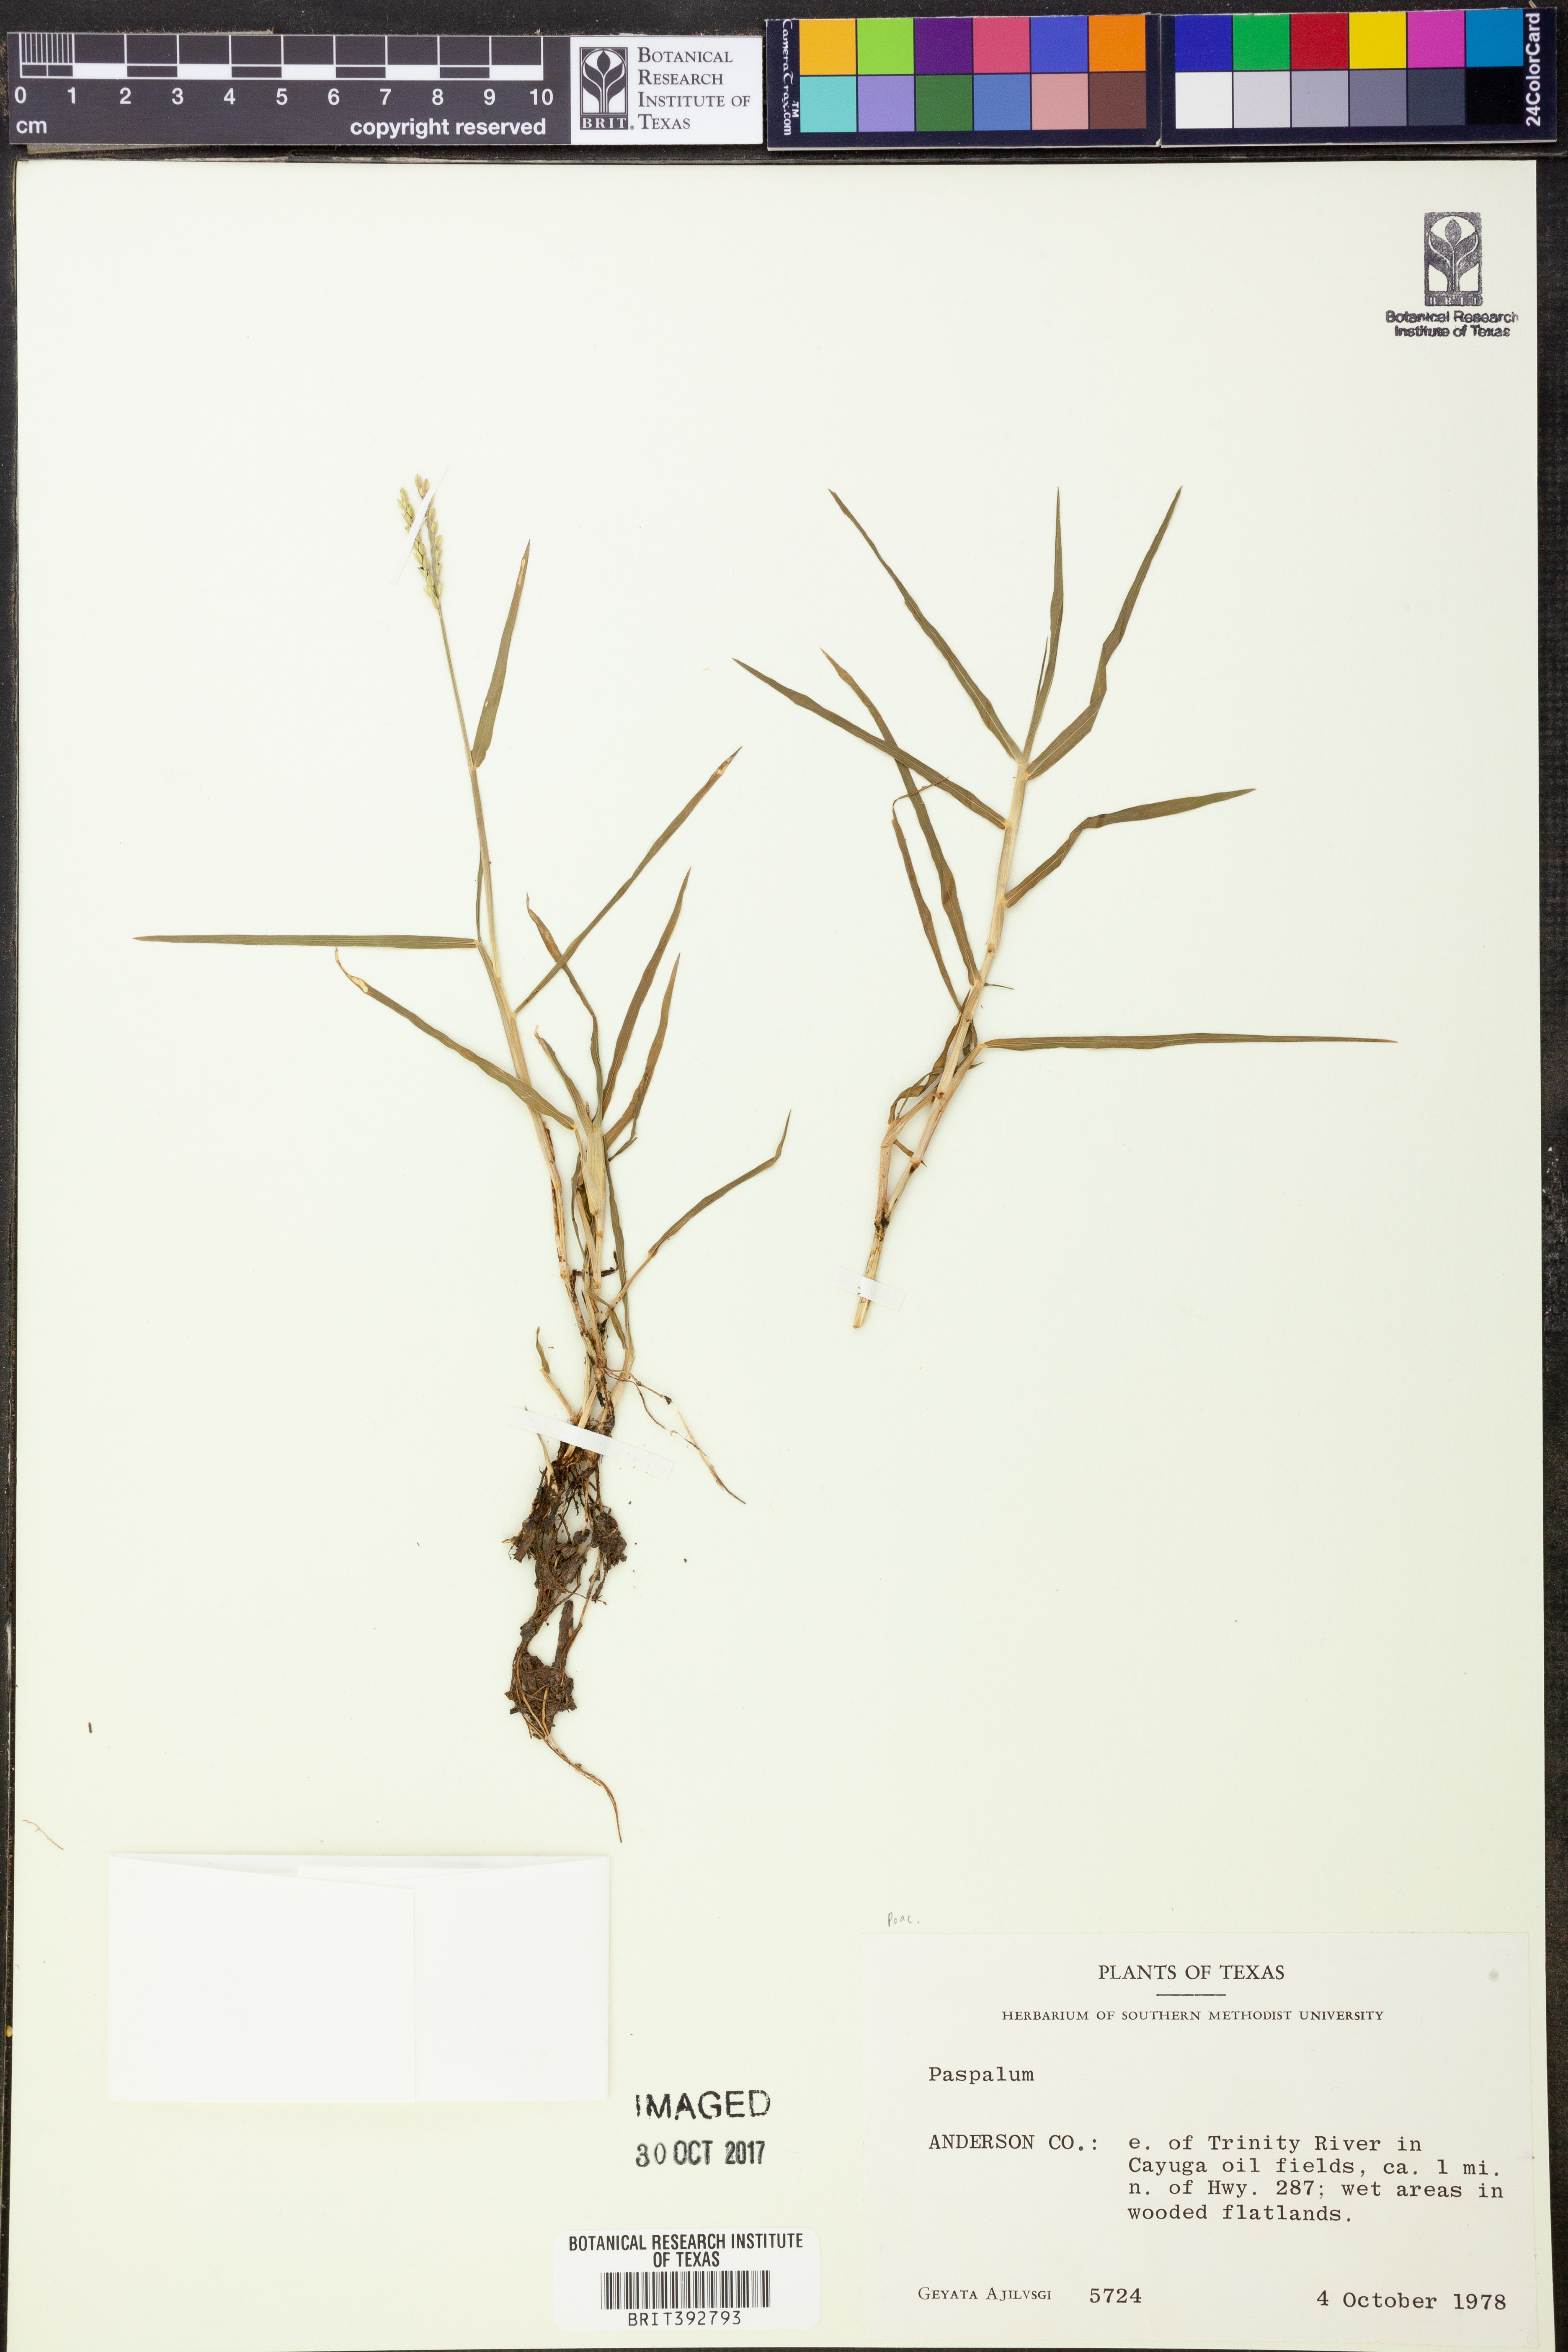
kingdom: Plantae
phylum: Tracheophyta
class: Liliopsida
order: Poales
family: Poaceae
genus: Paspalum
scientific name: Paspalum
